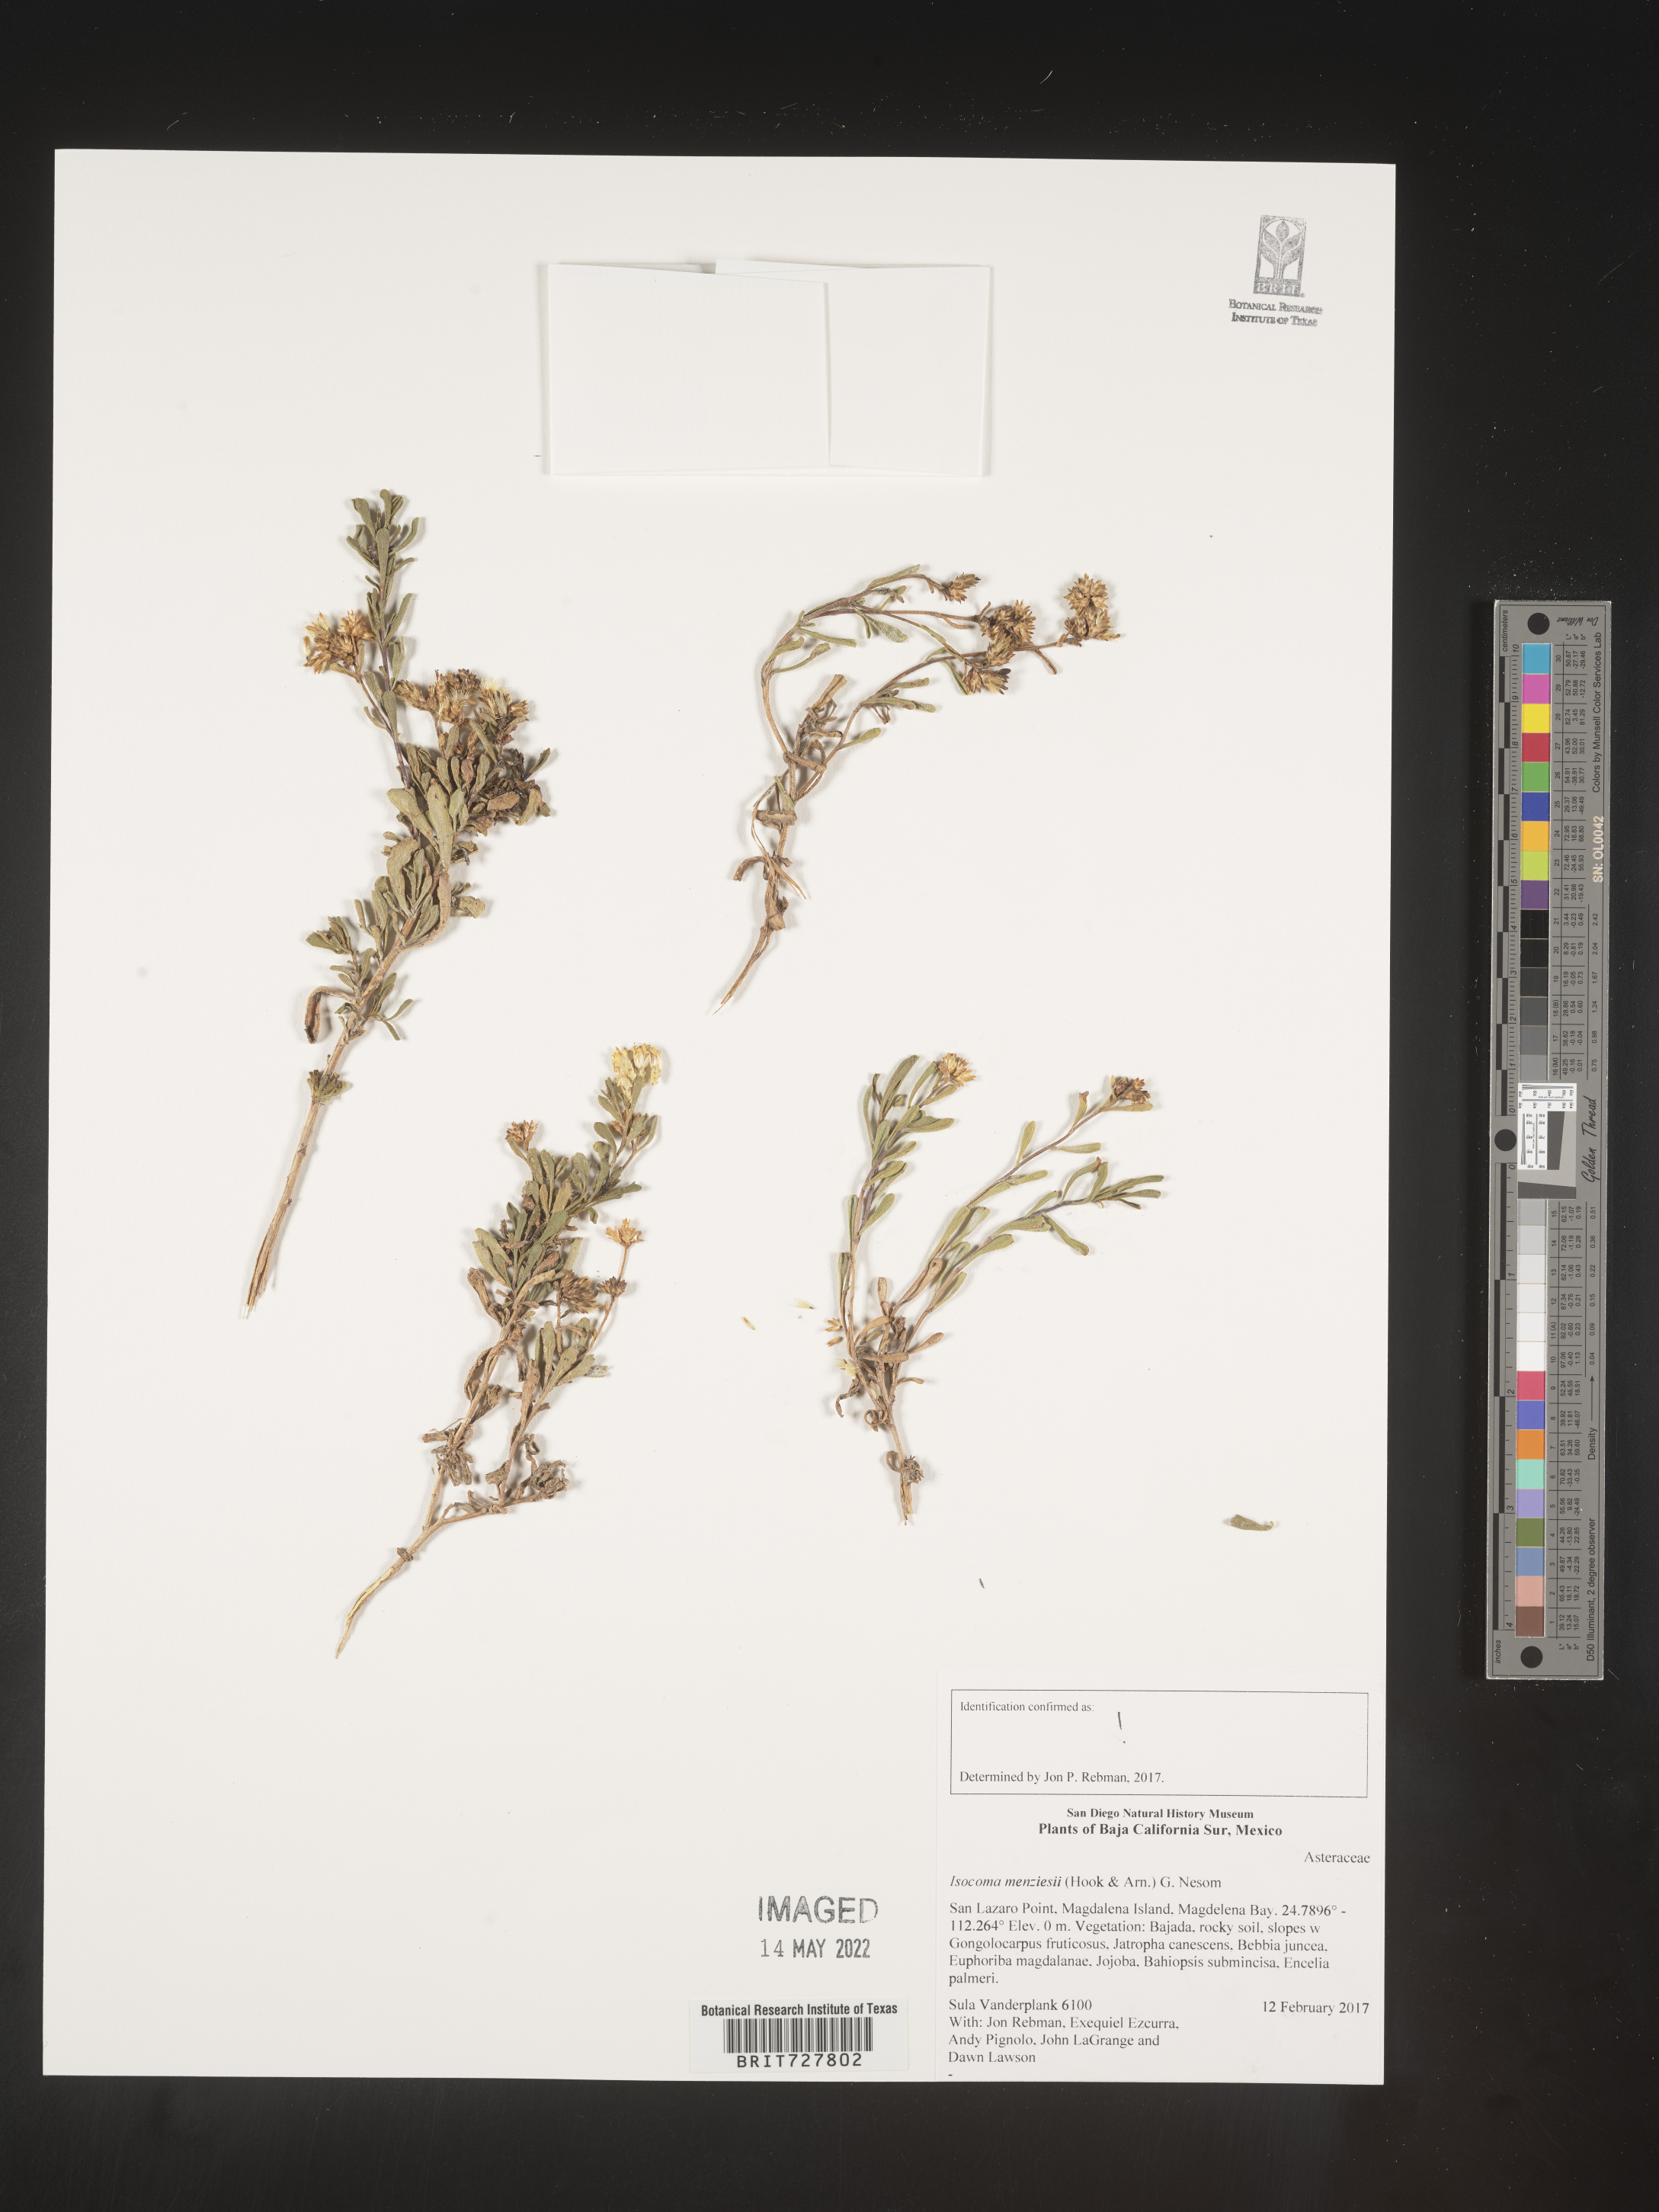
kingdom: Plantae
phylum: Tracheophyta
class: Magnoliopsida
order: Asterales
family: Asteraceae
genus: Isocoma
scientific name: Isocoma
